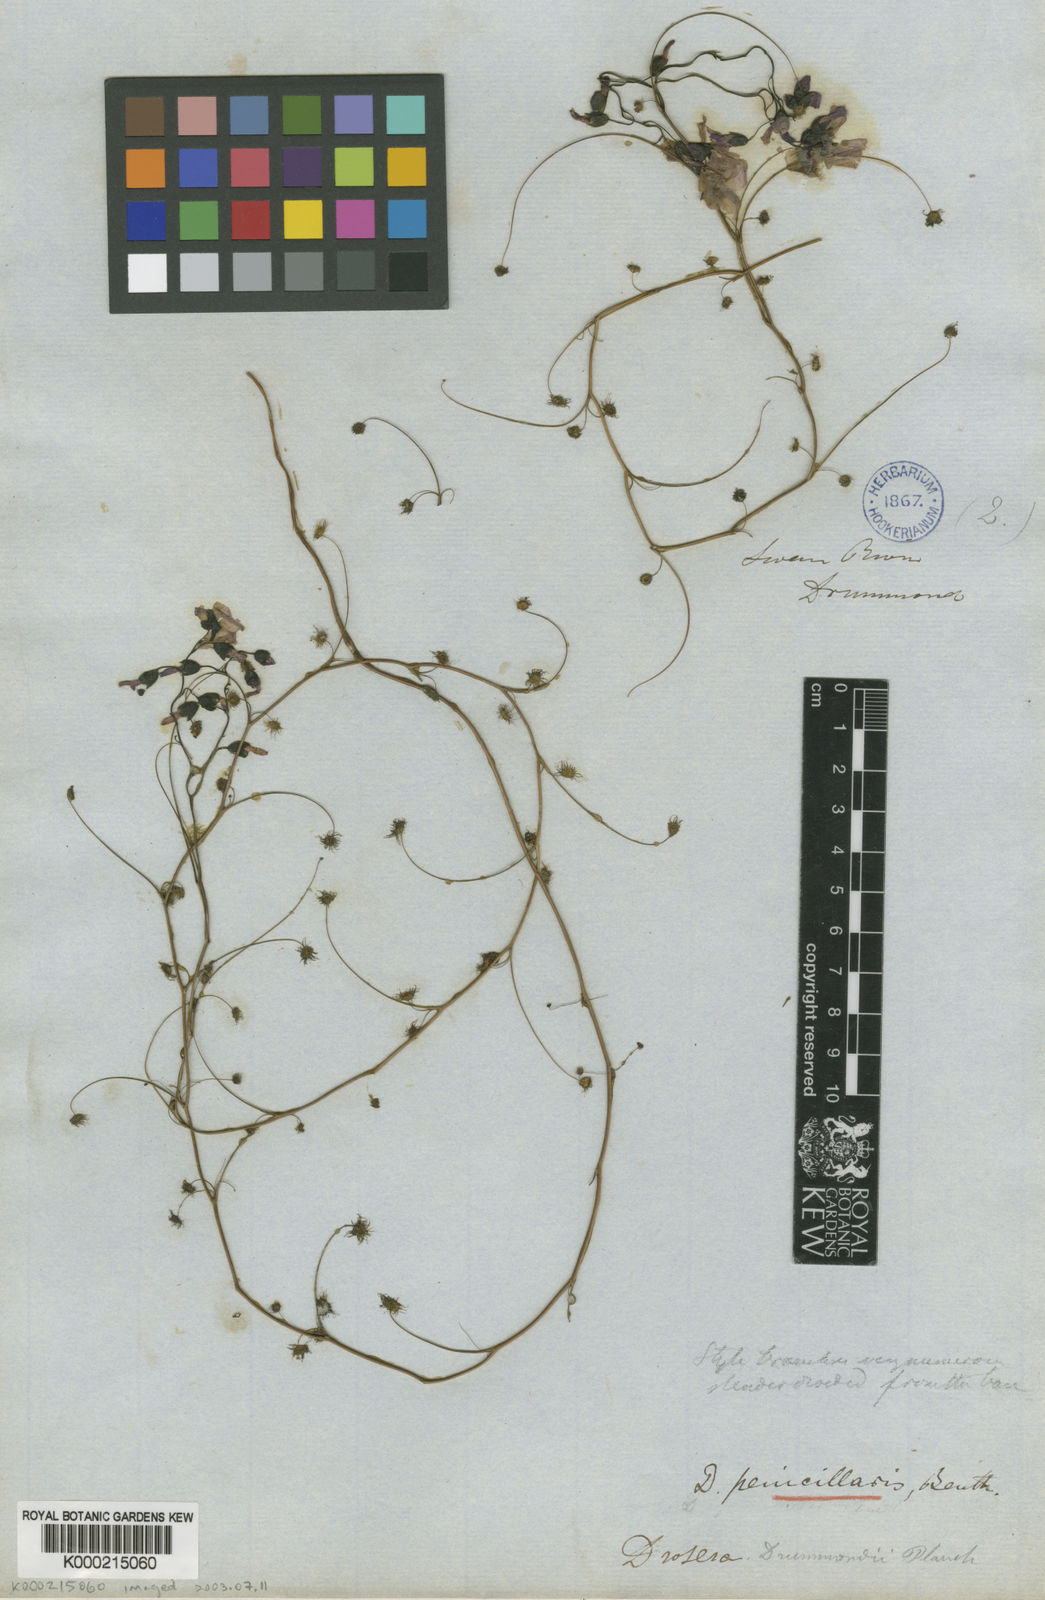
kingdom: Plantae
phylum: Tracheophyta
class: Magnoliopsida
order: Caryophyllales
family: Droseraceae
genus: Drosera
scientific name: Drosera
